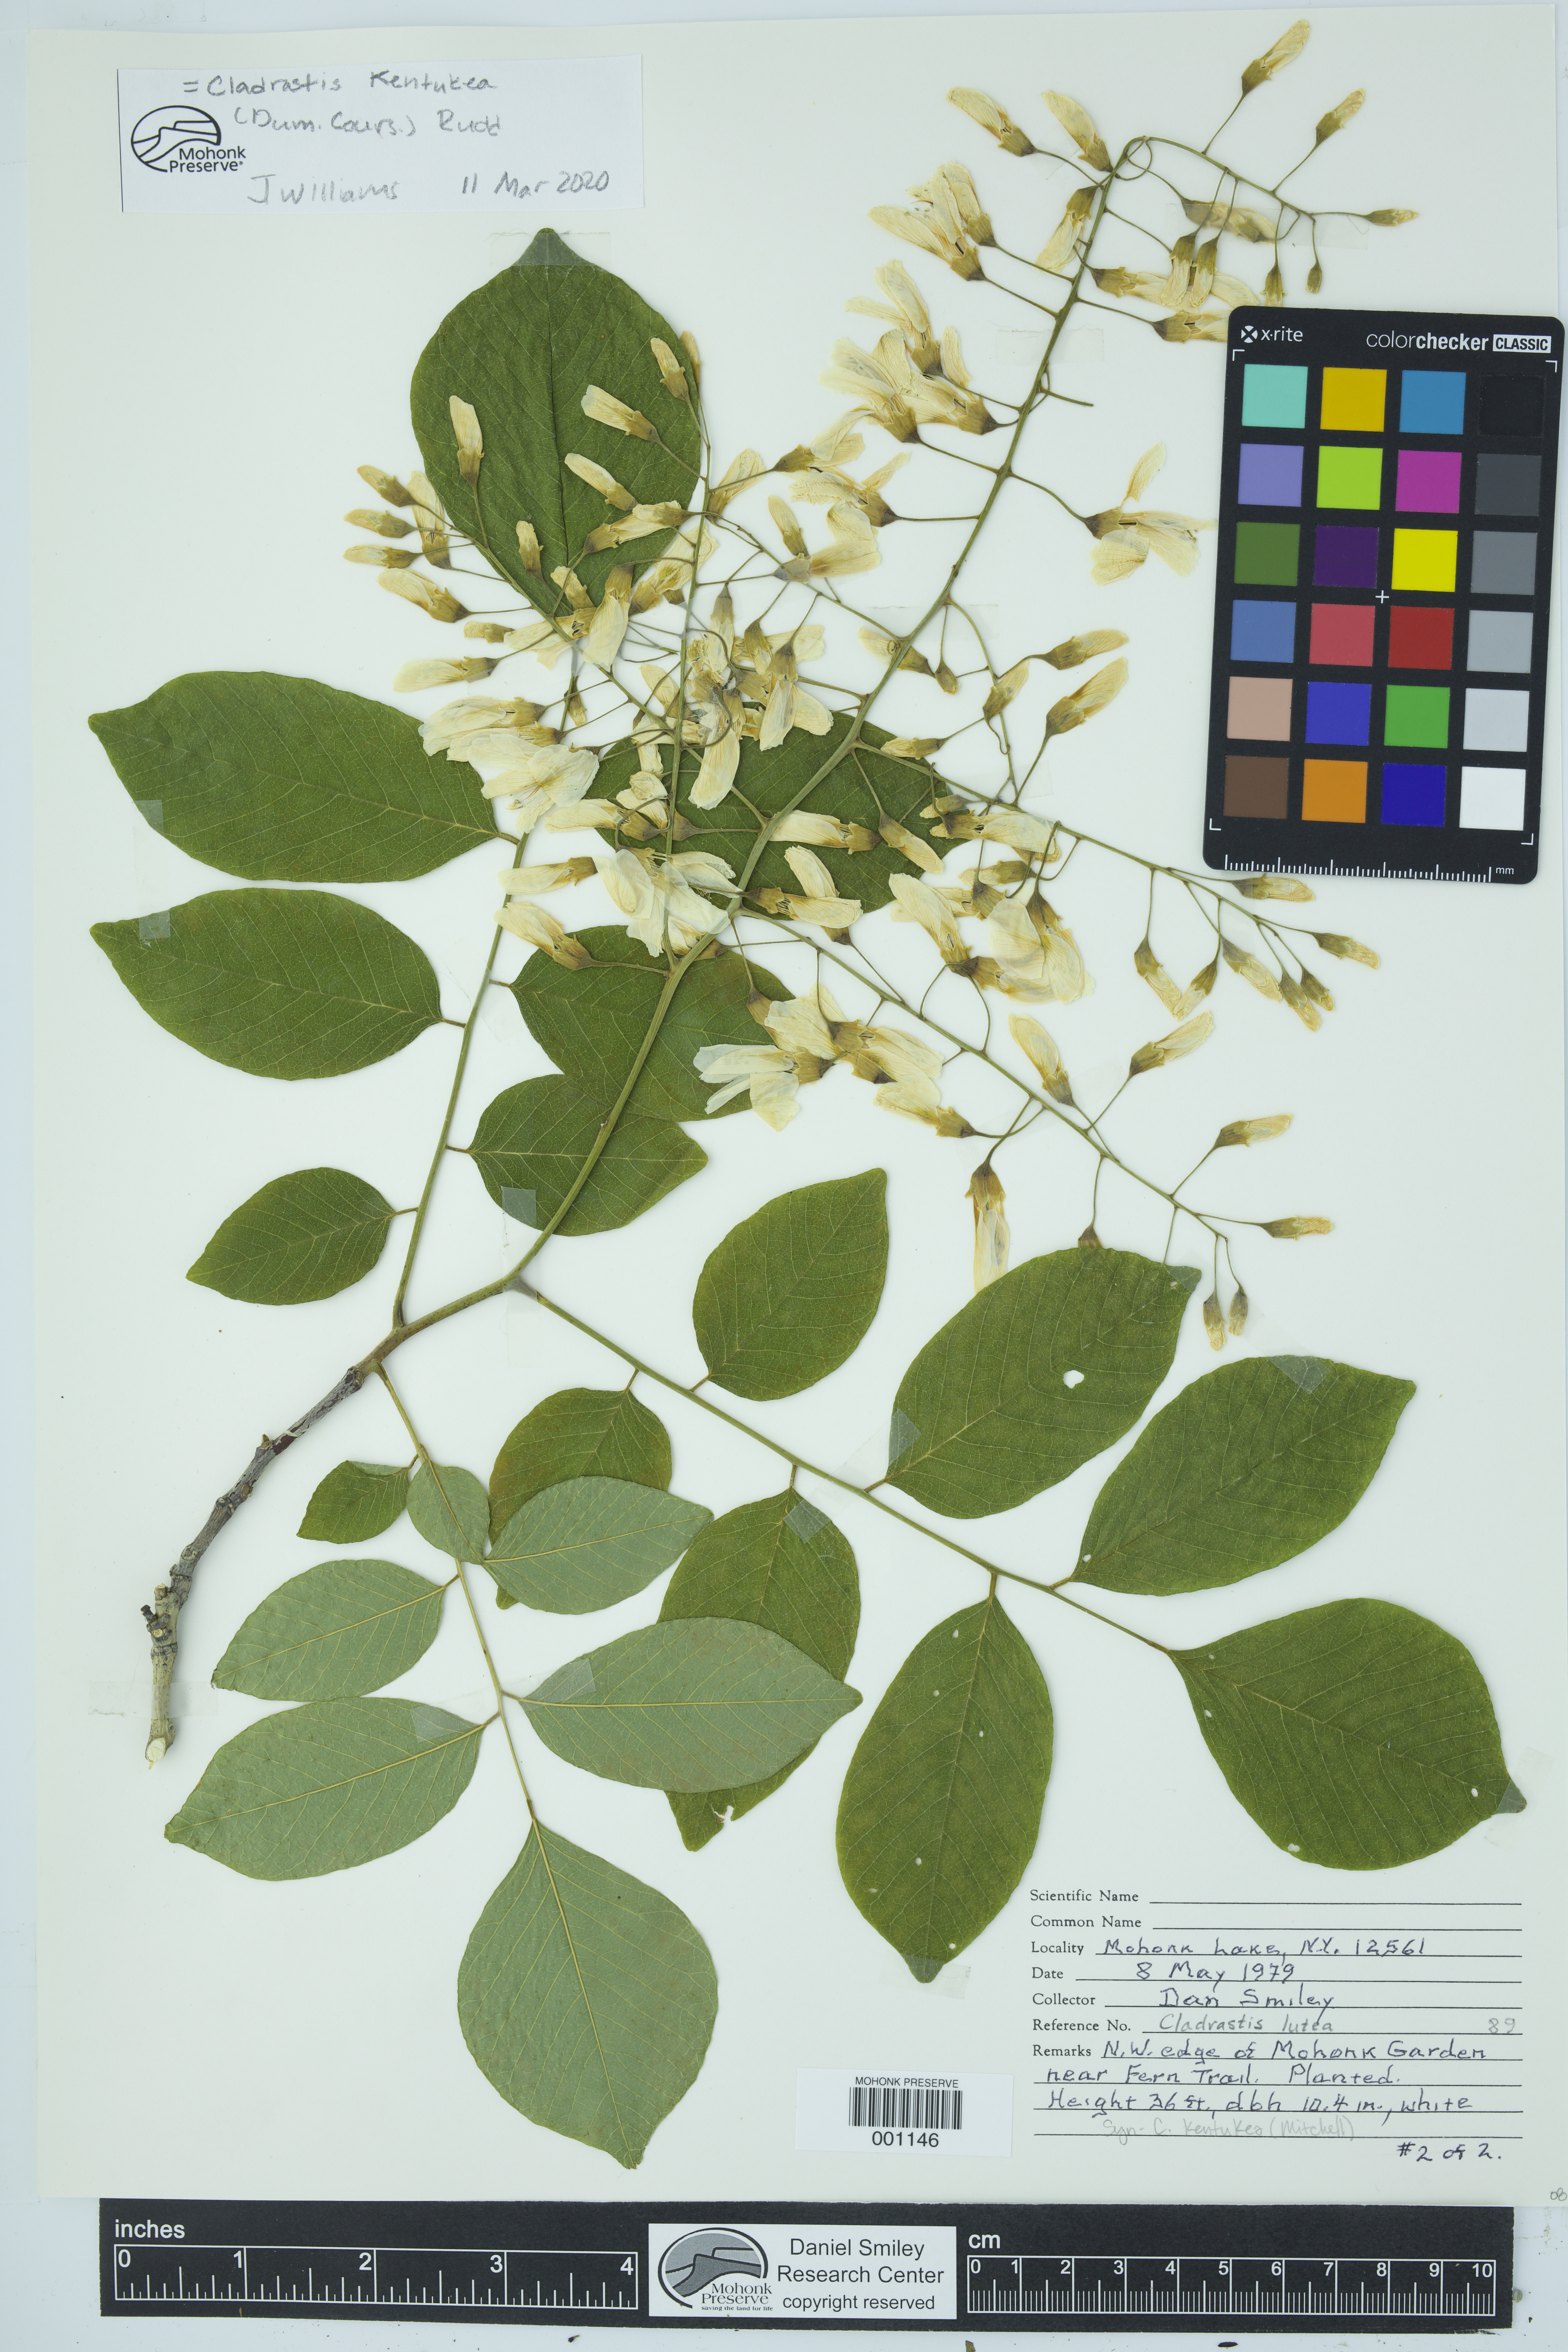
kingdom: Plantae
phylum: Tracheophyta
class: Magnoliopsida
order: Fabales
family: Fabaceae
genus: Cladrastis
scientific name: Cladrastis kentukea
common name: Kentucky yellow-wood
